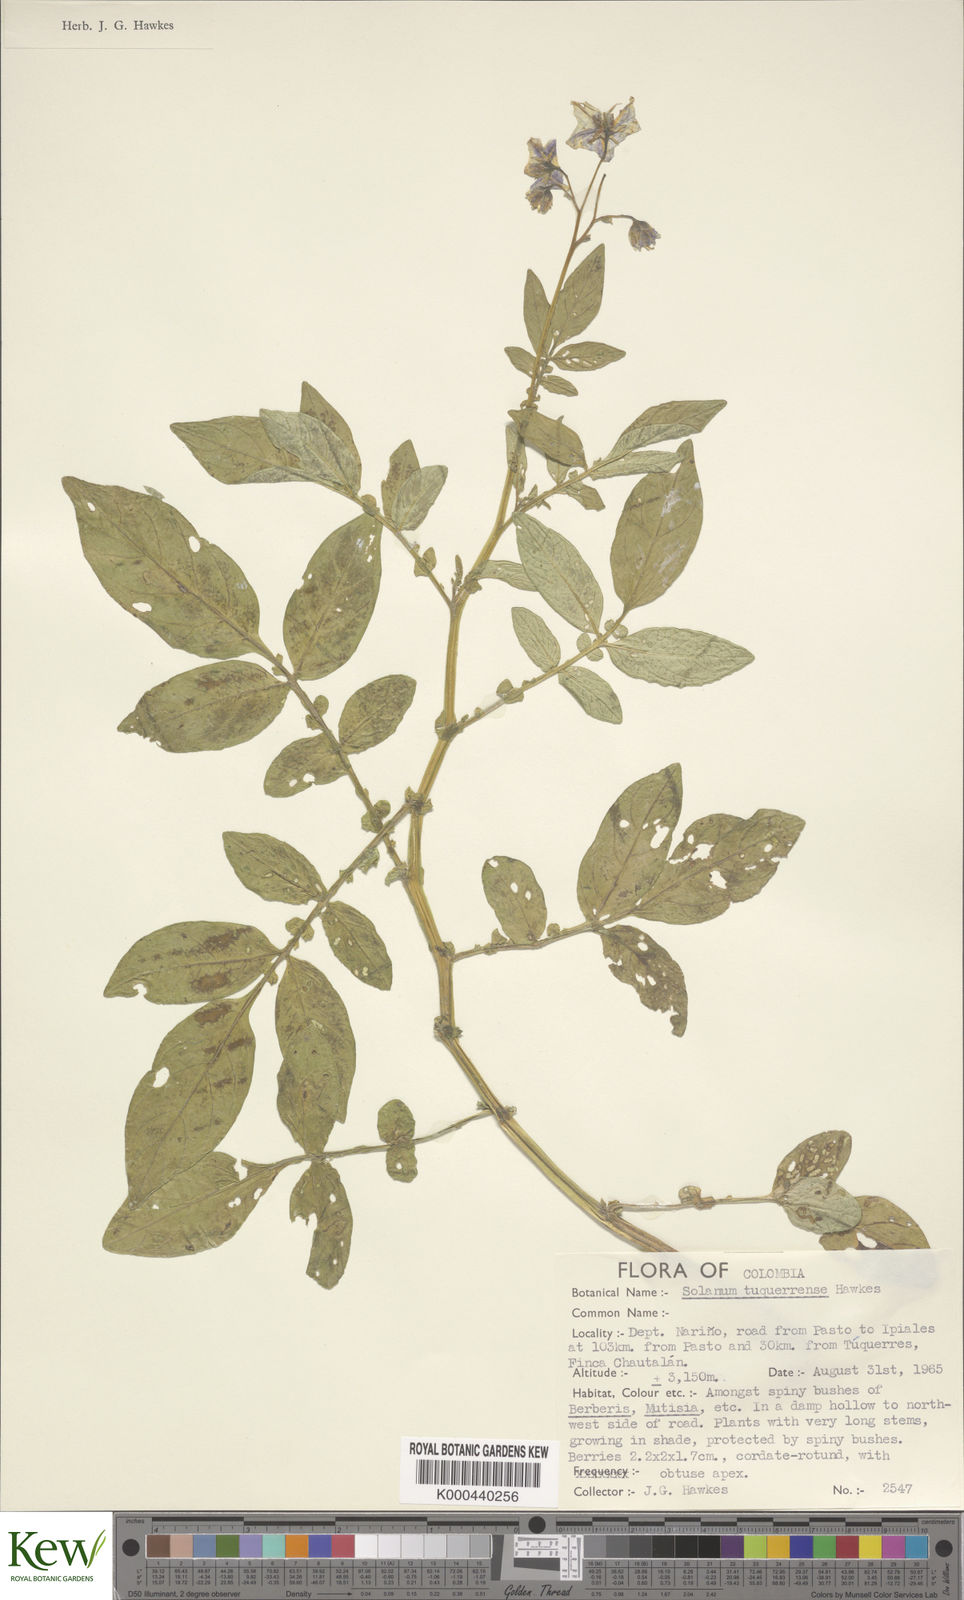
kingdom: Plantae
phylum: Tracheophyta
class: Magnoliopsida
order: Solanales
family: Solanaceae
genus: Solanum
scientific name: Solanum andreanum
